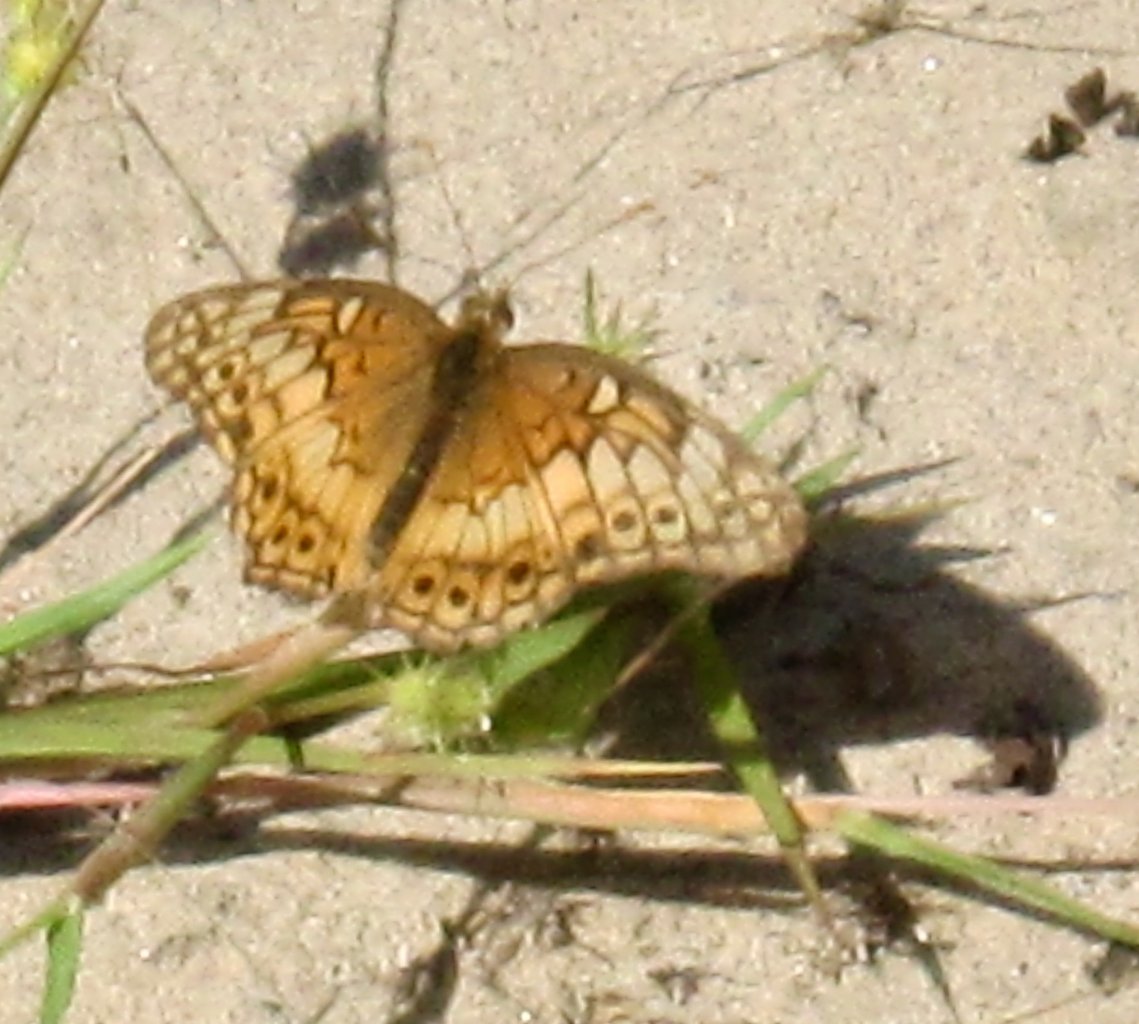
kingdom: Animalia
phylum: Arthropoda
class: Insecta
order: Lepidoptera
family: Nymphalidae
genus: Euptoieta
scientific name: Euptoieta claudia
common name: Variegated Fritillary
